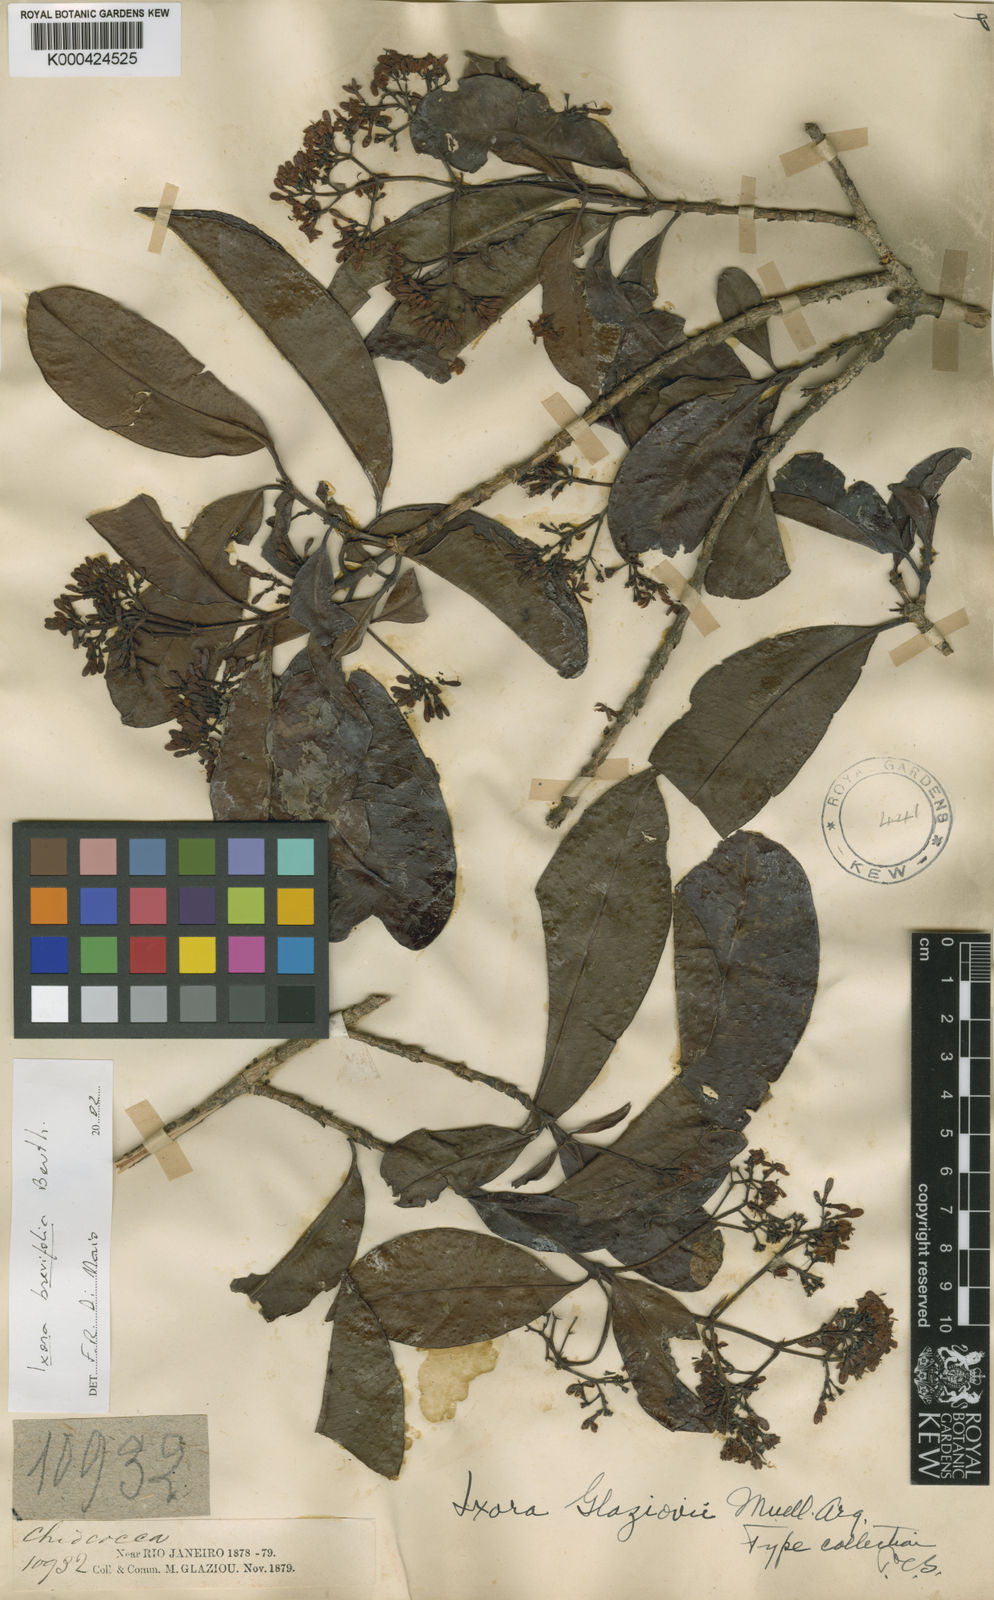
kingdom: Plantae
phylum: Tracheophyta
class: Magnoliopsida
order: Gentianales
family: Rubiaceae
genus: Ixora
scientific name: Ixora brevifolia
